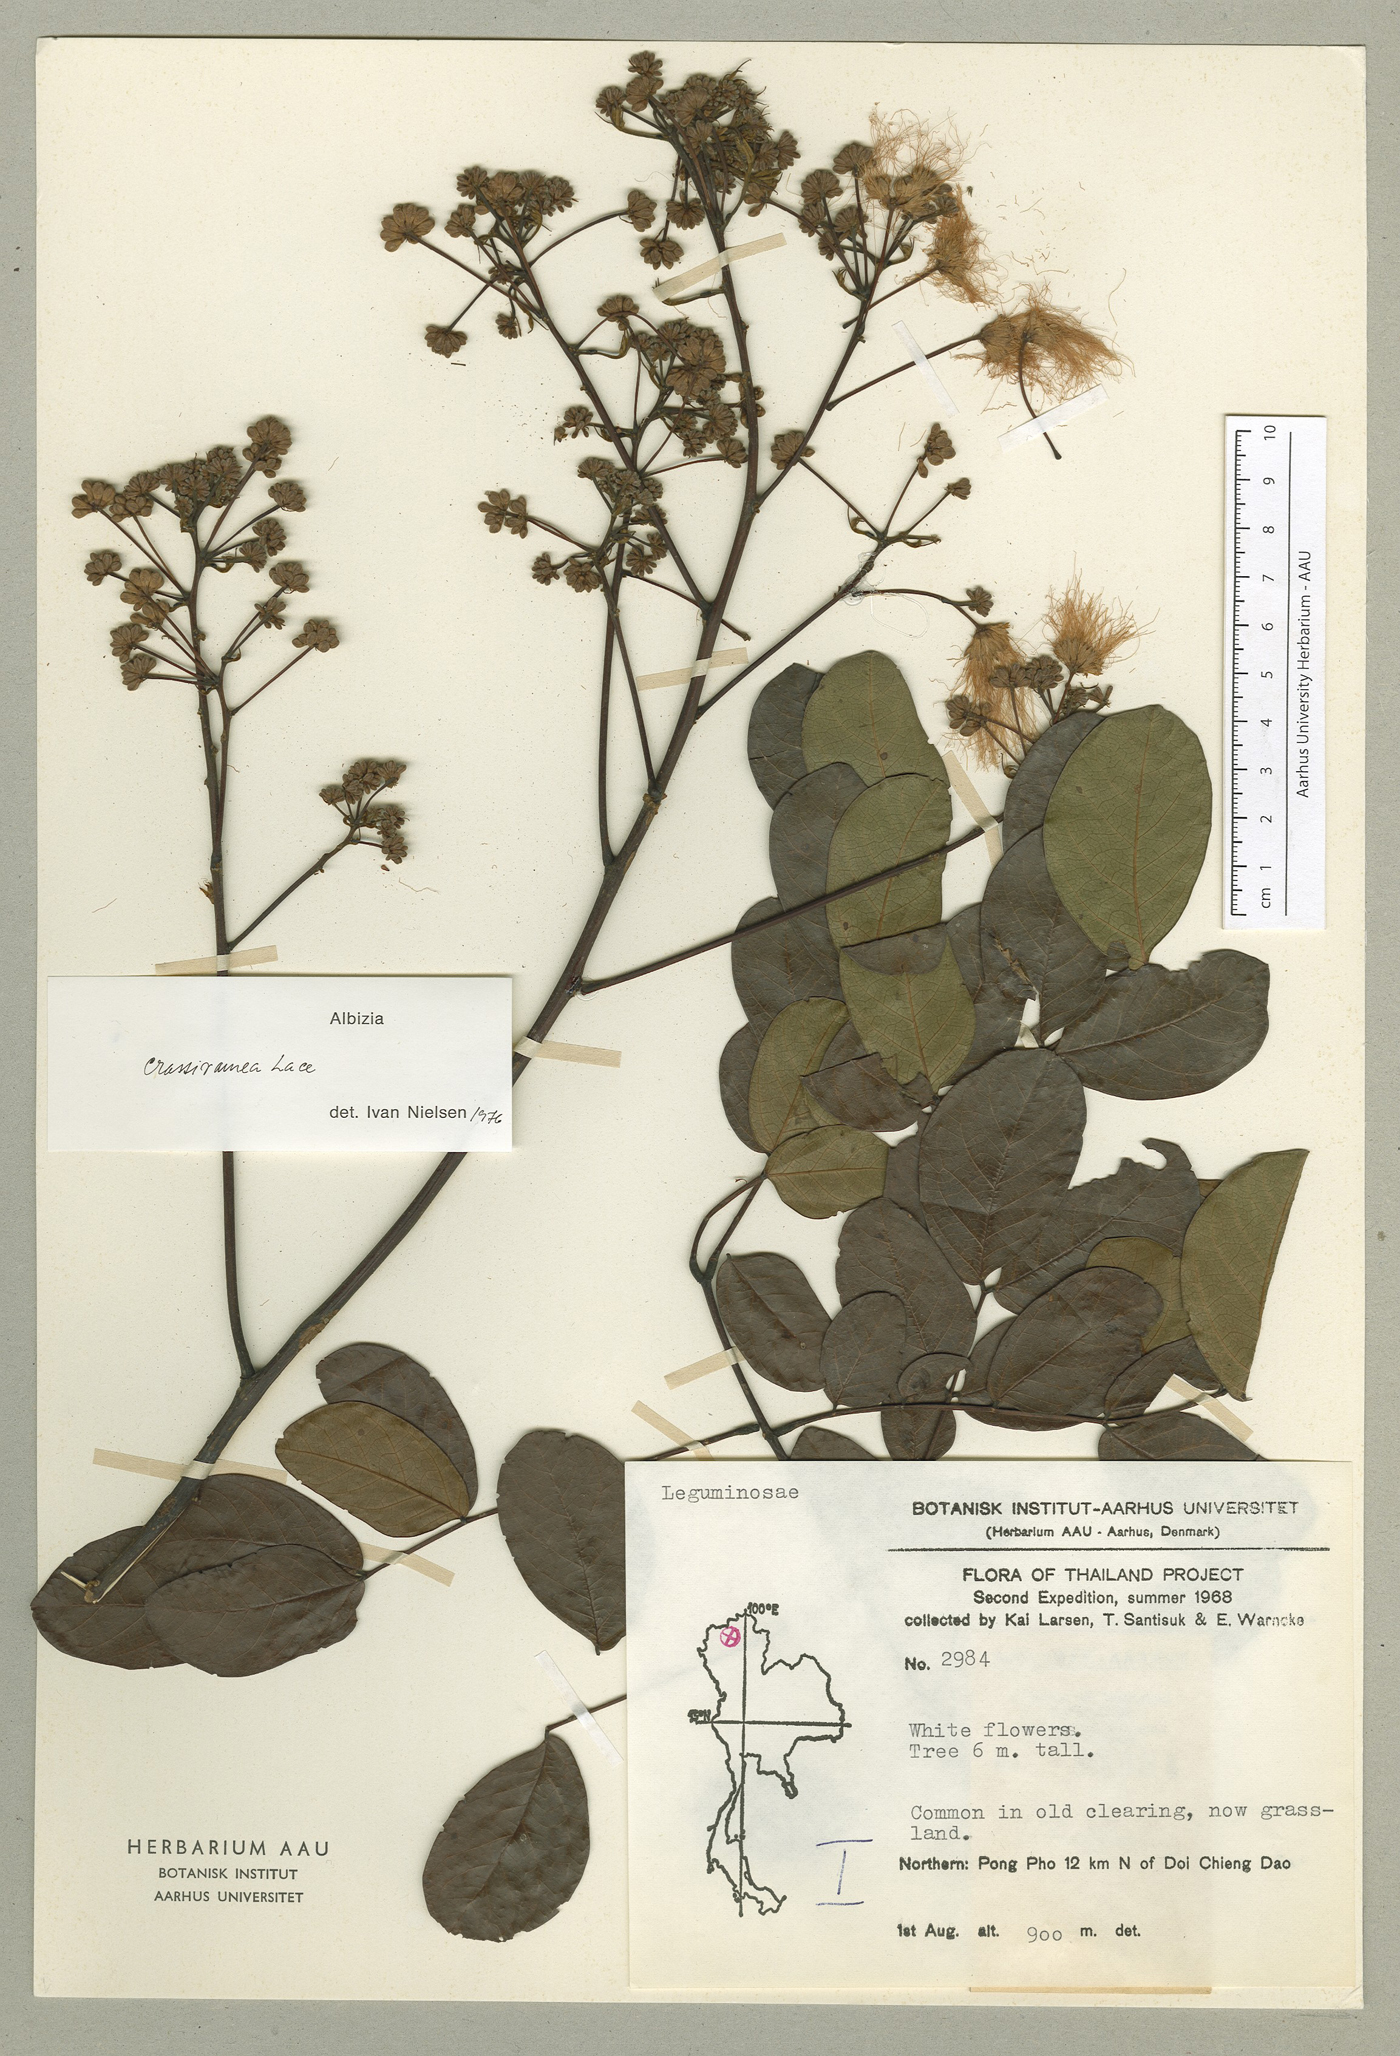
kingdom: Plantae
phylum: Tracheophyta
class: Magnoliopsida
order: Fabales
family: Fabaceae
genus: Albizia
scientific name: Albizia crassiramea
